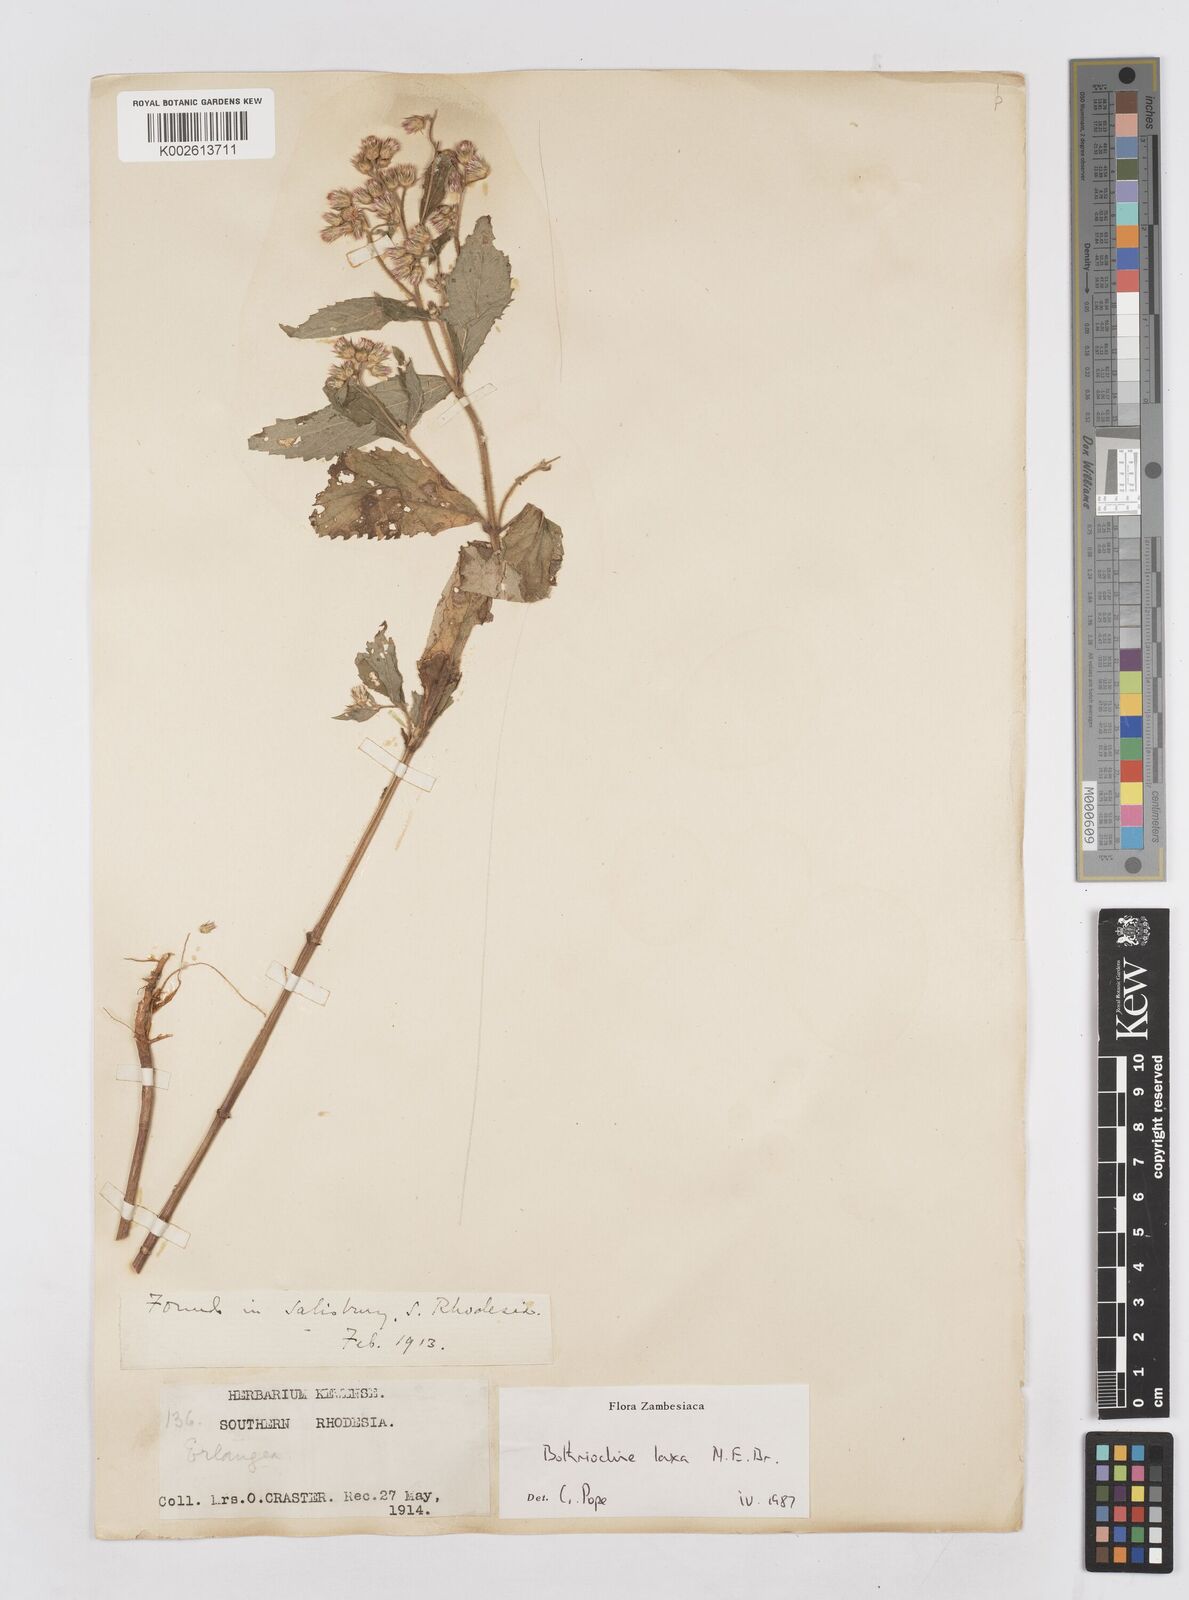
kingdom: Plantae
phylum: Tracheophyta
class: Magnoliopsida
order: Asterales
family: Asteraceae
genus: Bothriocline
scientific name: Bothriocline laxa
